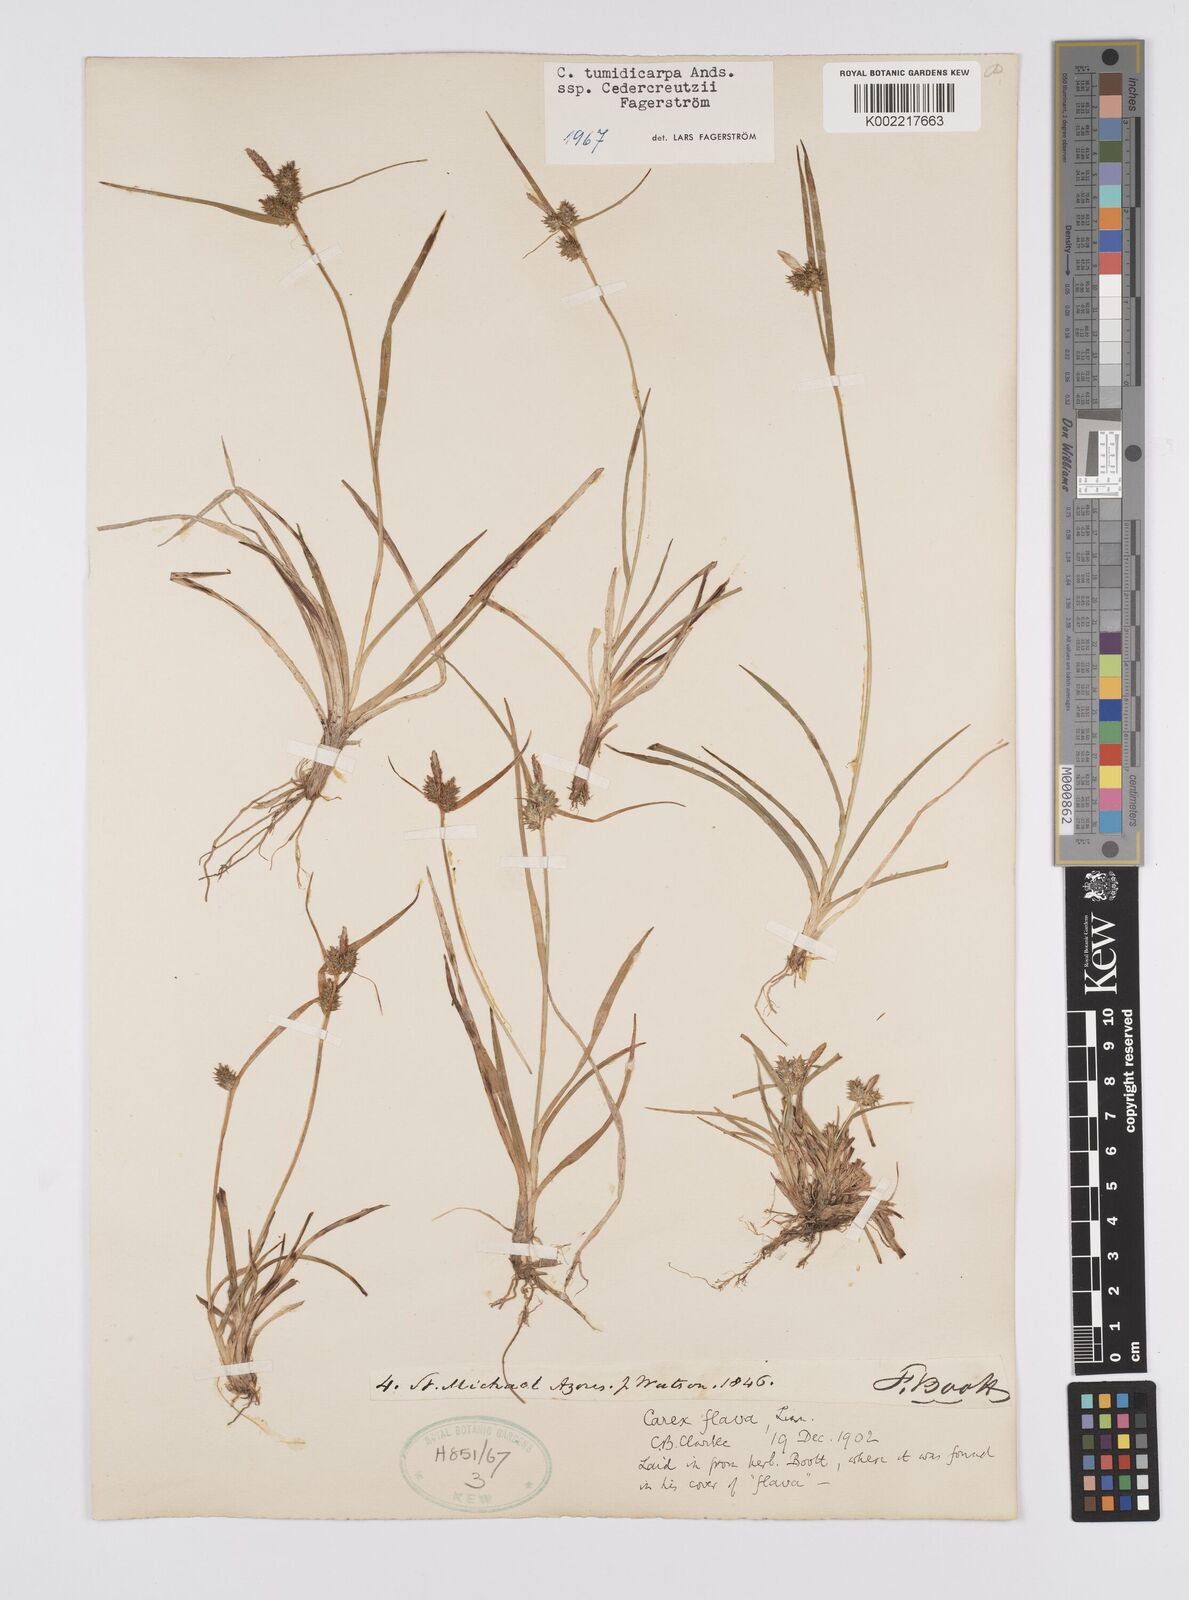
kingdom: Plantae
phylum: Tracheophyta
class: Liliopsida
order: Poales
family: Cyperaceae
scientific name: Cyperaceae
